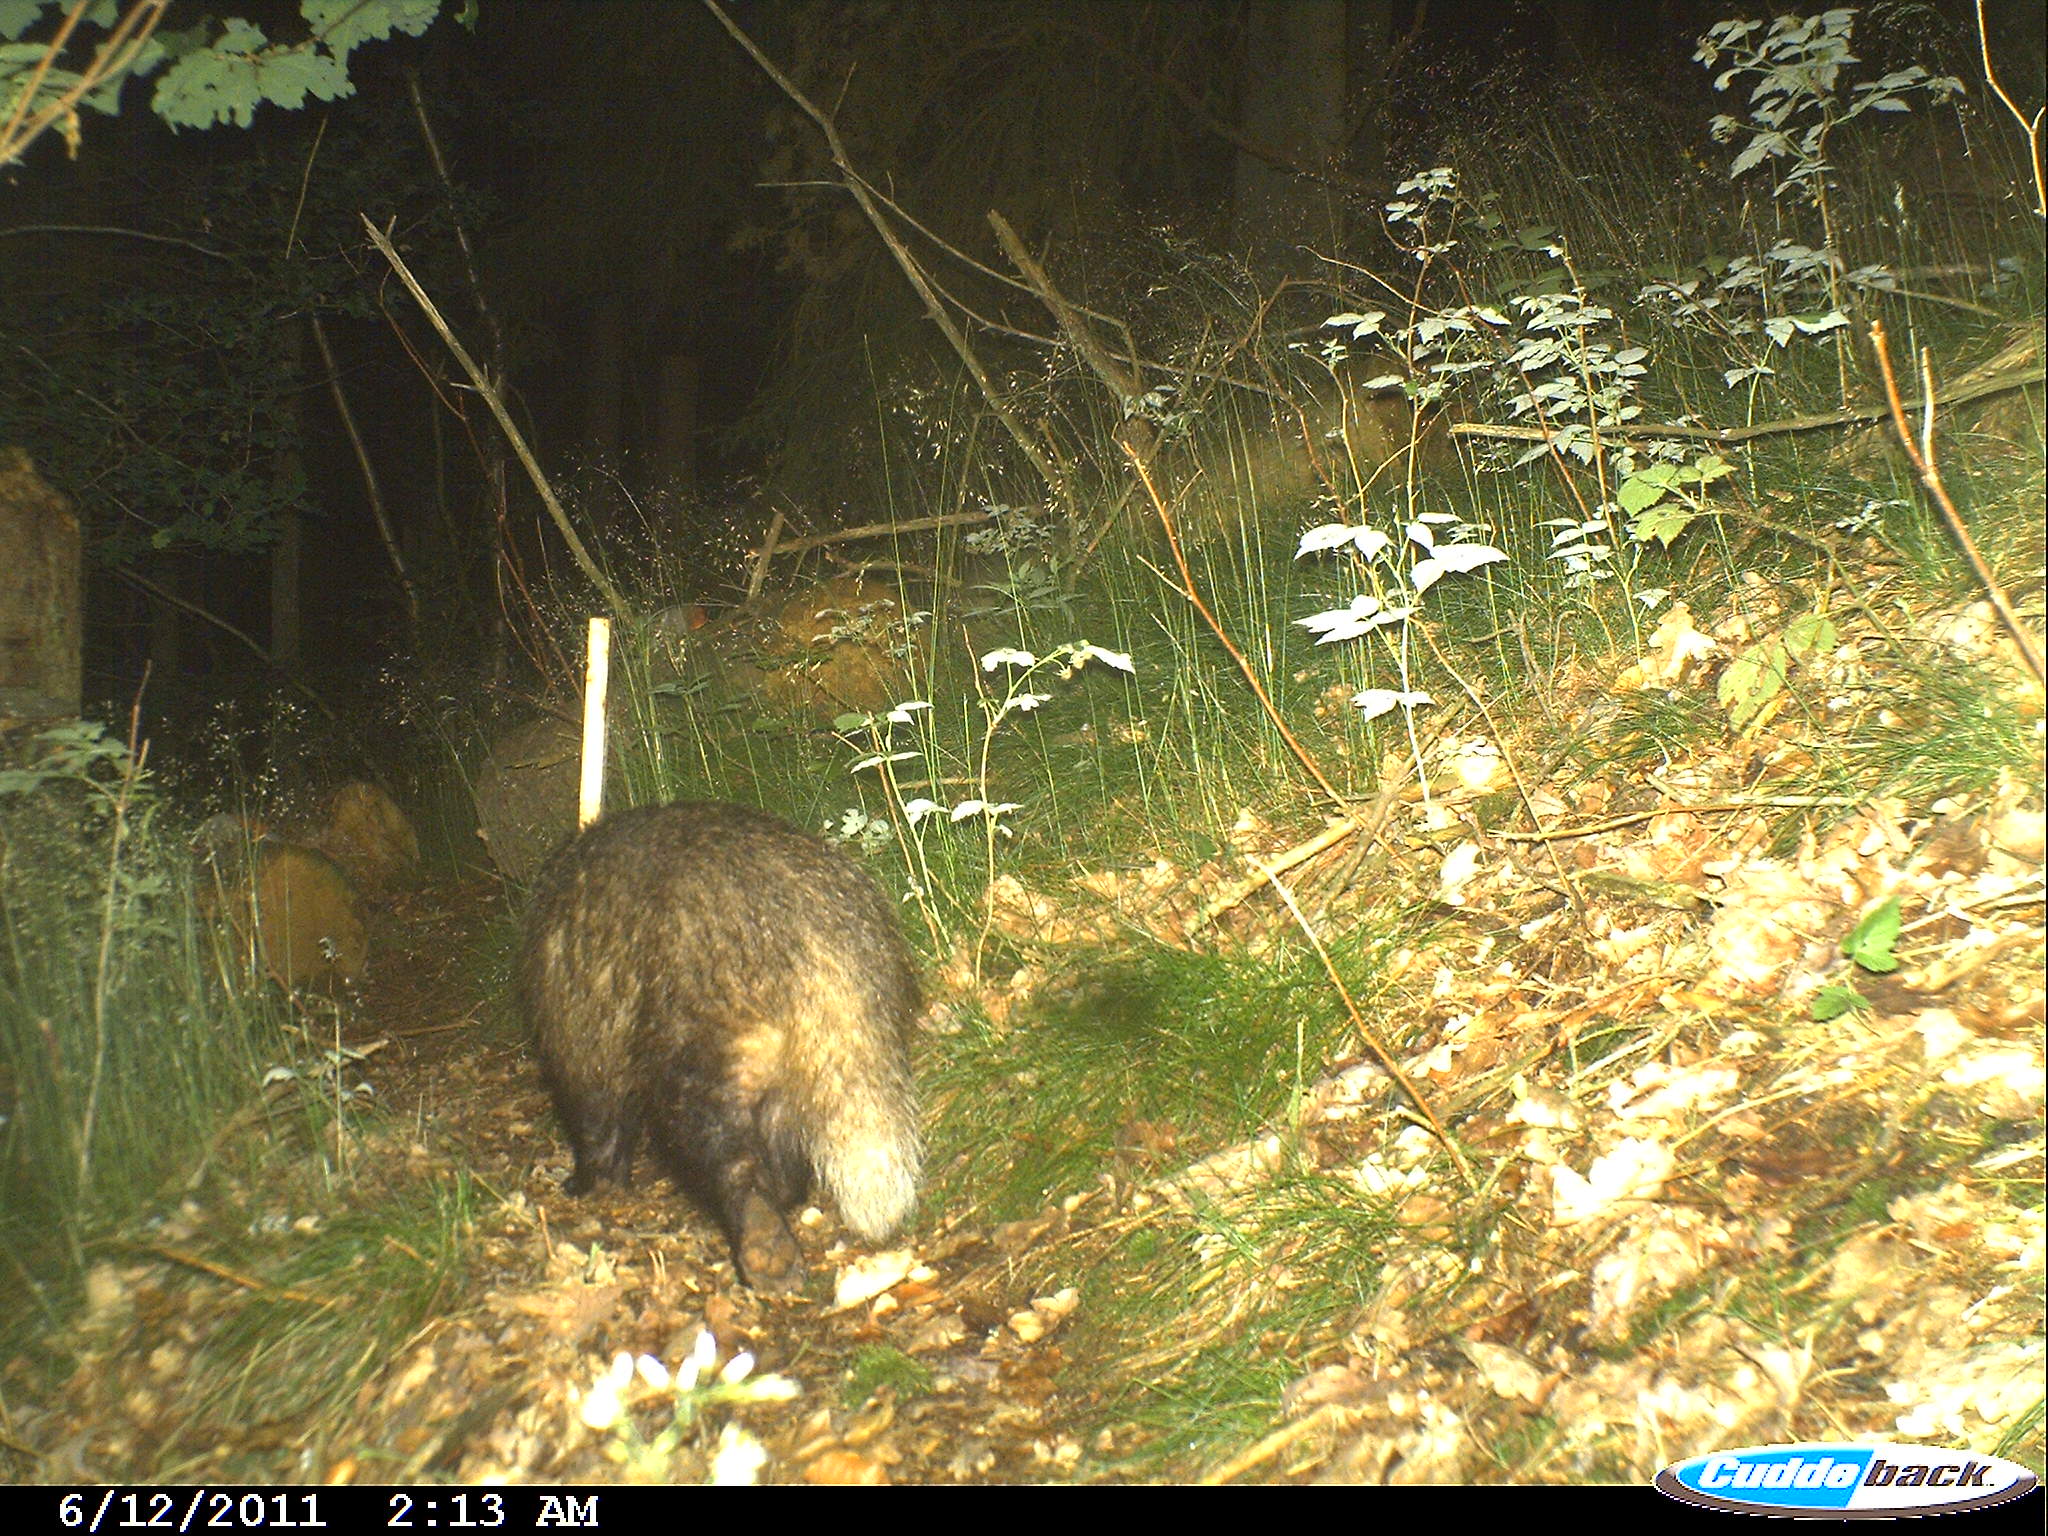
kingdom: Animalia
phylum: Chordata
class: Mammalia
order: Carnivora
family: Mustelidae
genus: Meles
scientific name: Meles meles
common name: Eurasian badger
